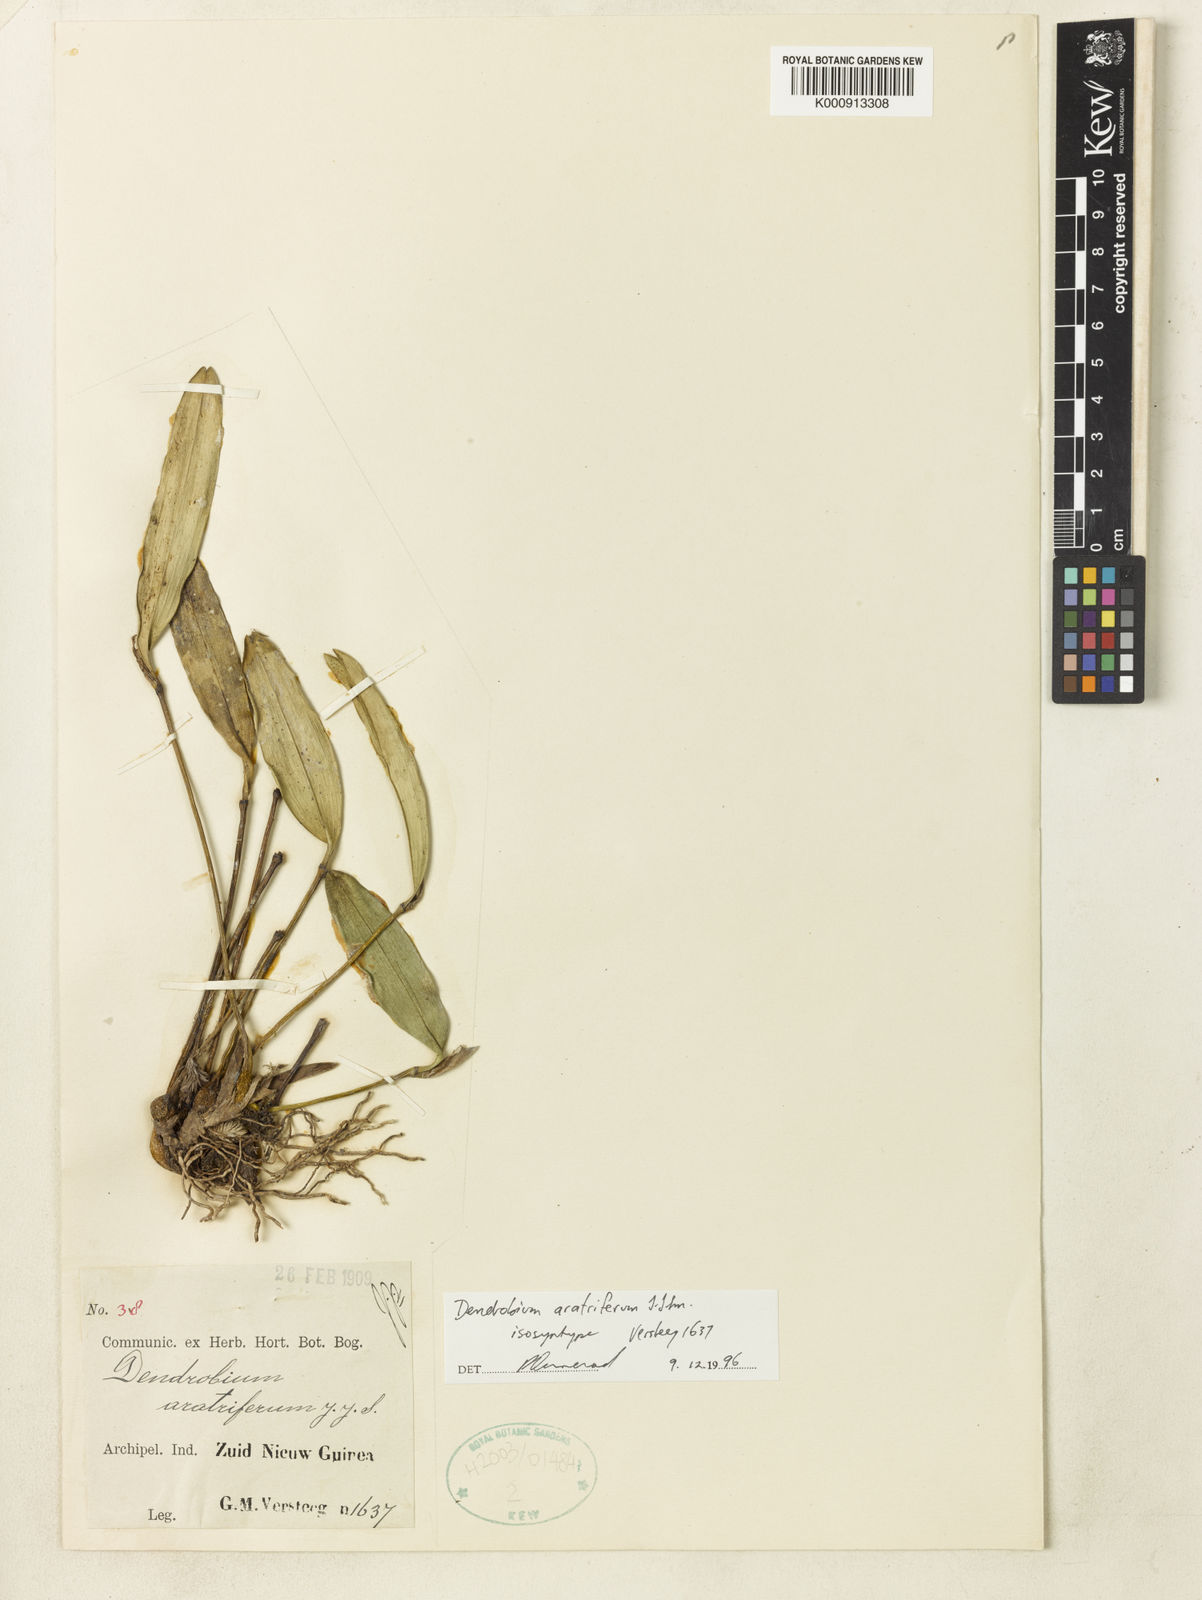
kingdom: Plantae
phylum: Tracheophyta
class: Liliopsida
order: Asparagales
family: Orchidaceae
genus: Dendrobium
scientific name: Dendrobium aratriferum
